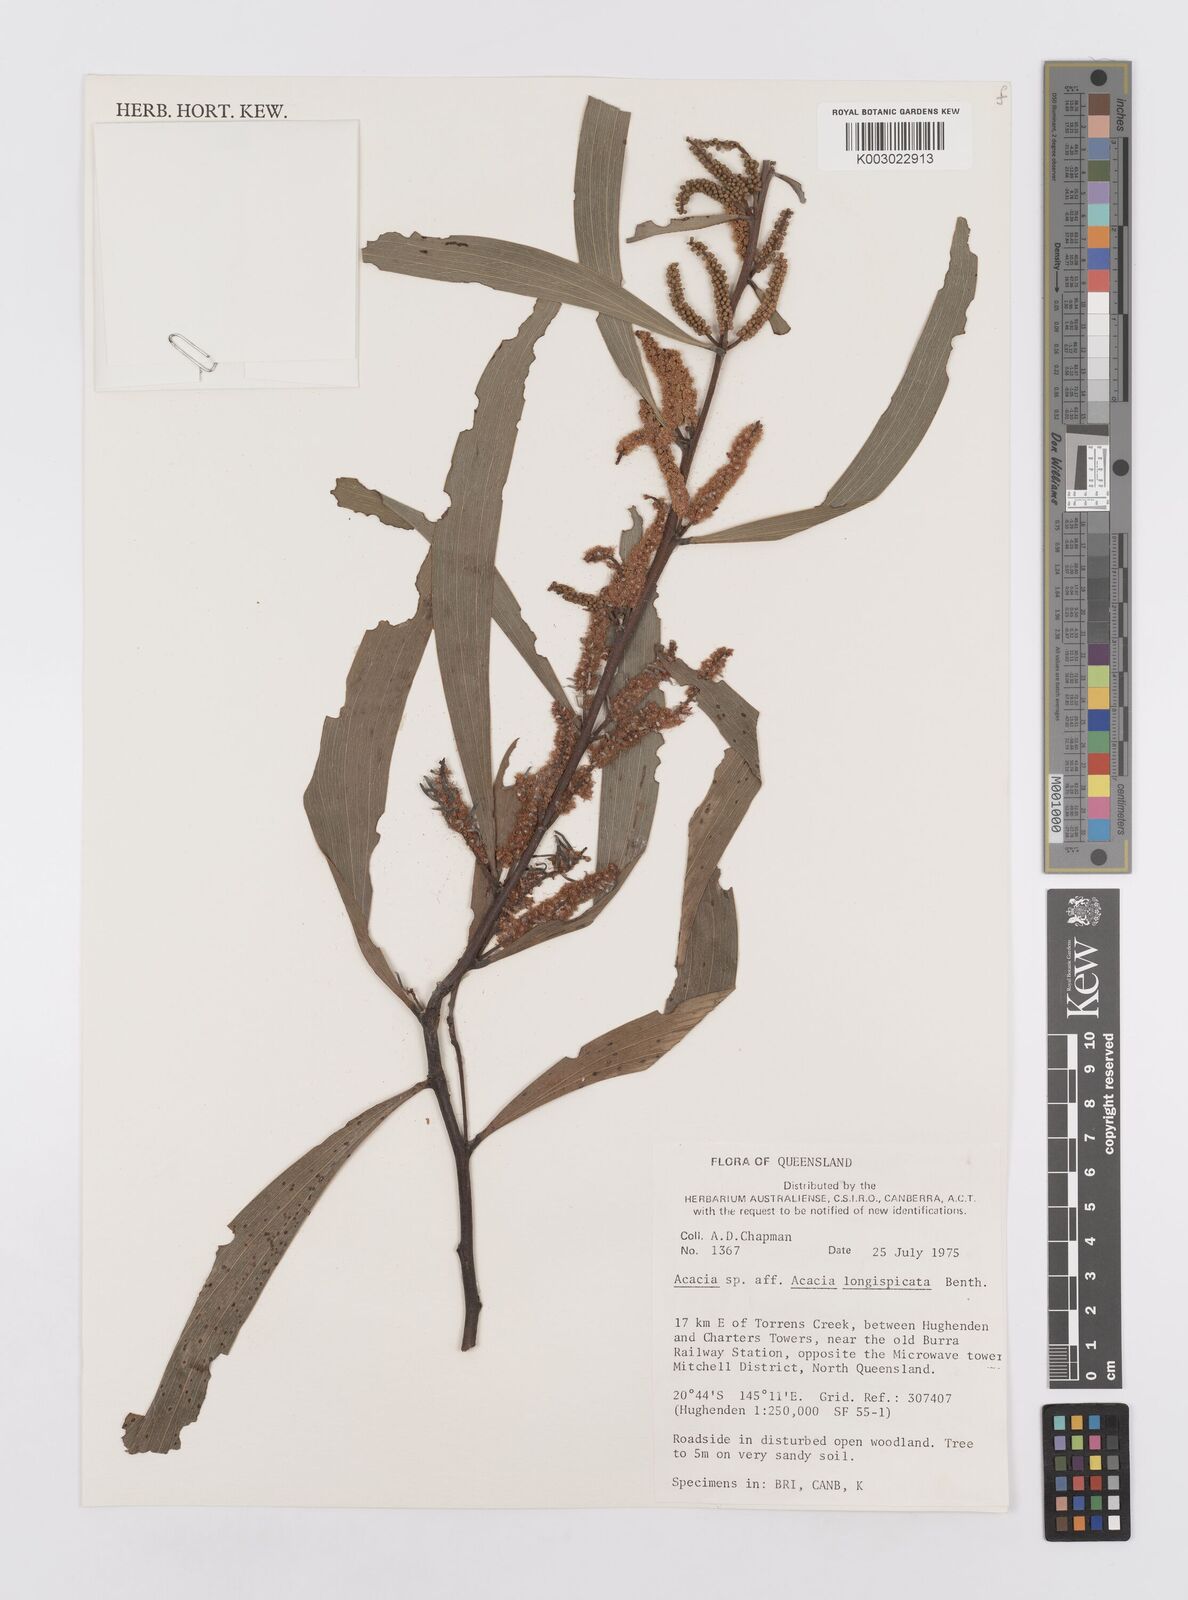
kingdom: Plantae
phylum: Tracheophyta
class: Magnoliopsida
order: Fabales
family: Fabaceae
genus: Acacia
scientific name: Acacia longispicata
